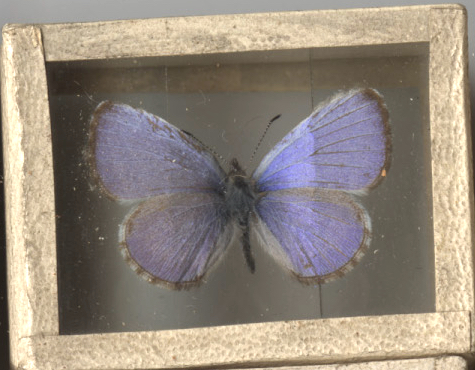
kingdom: Animalia
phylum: Arthropoda
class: Insecta
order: Lepidoptera
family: Lycaenidae
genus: Celastrina
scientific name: Celastrina lucia
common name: Northern Azure
